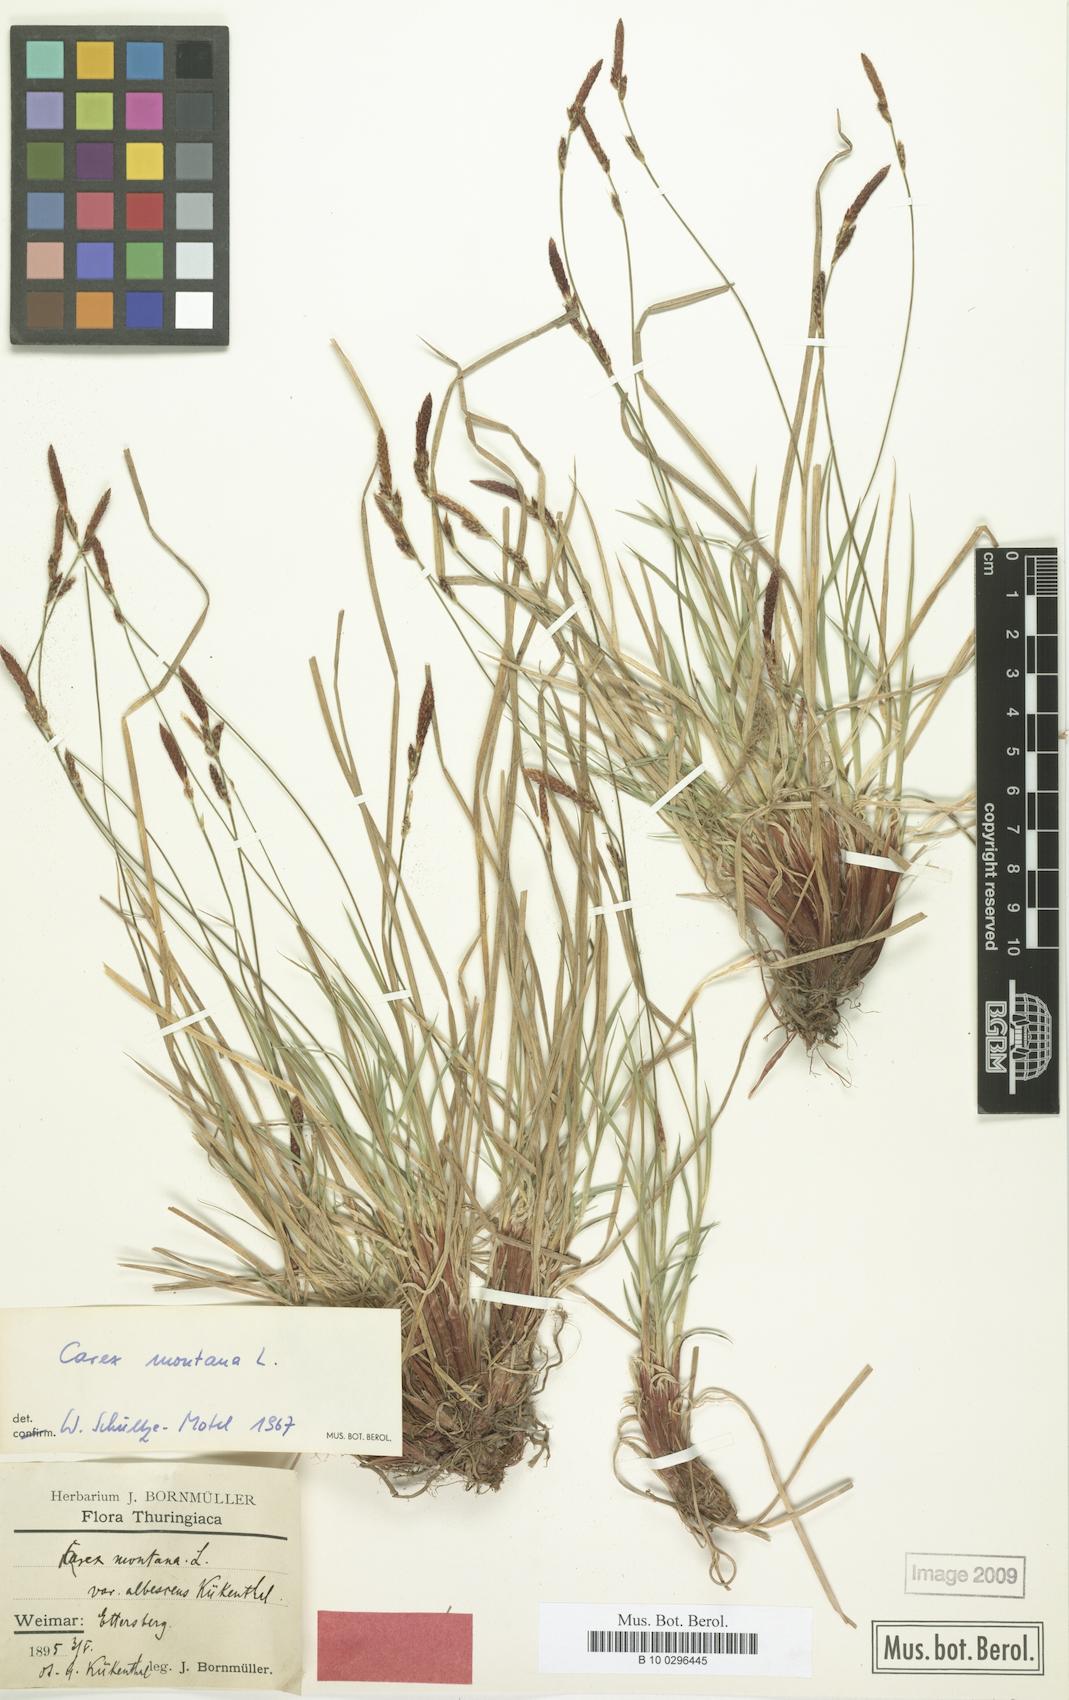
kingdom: Plantae
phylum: Tracheophyta
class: Liliopsida
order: Poales
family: Cyperaceae
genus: Carex
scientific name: Carex montana
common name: Soft-leaved sedge
